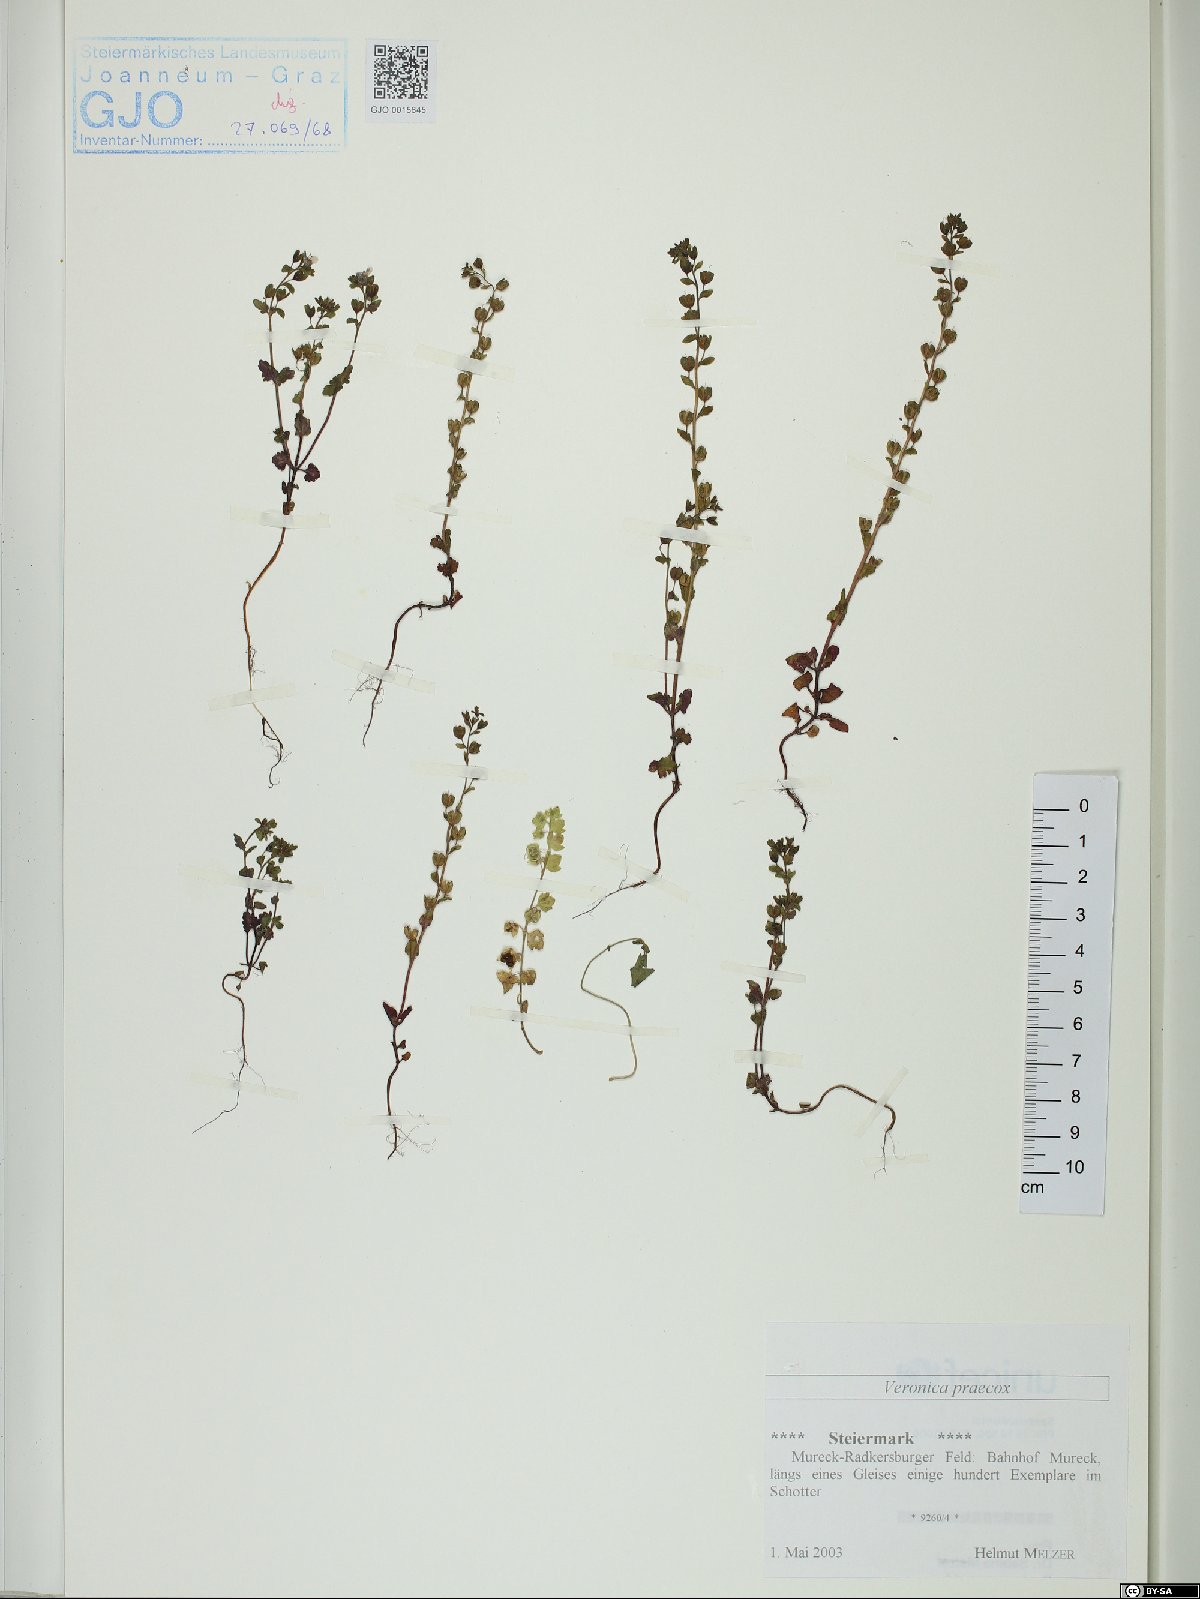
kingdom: Plantae
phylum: Tracheophyta
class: Magnoliopsida
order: Lamiales
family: Plantaginaceae
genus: Veronica
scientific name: Veronica praecox
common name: Breckland speedwell
